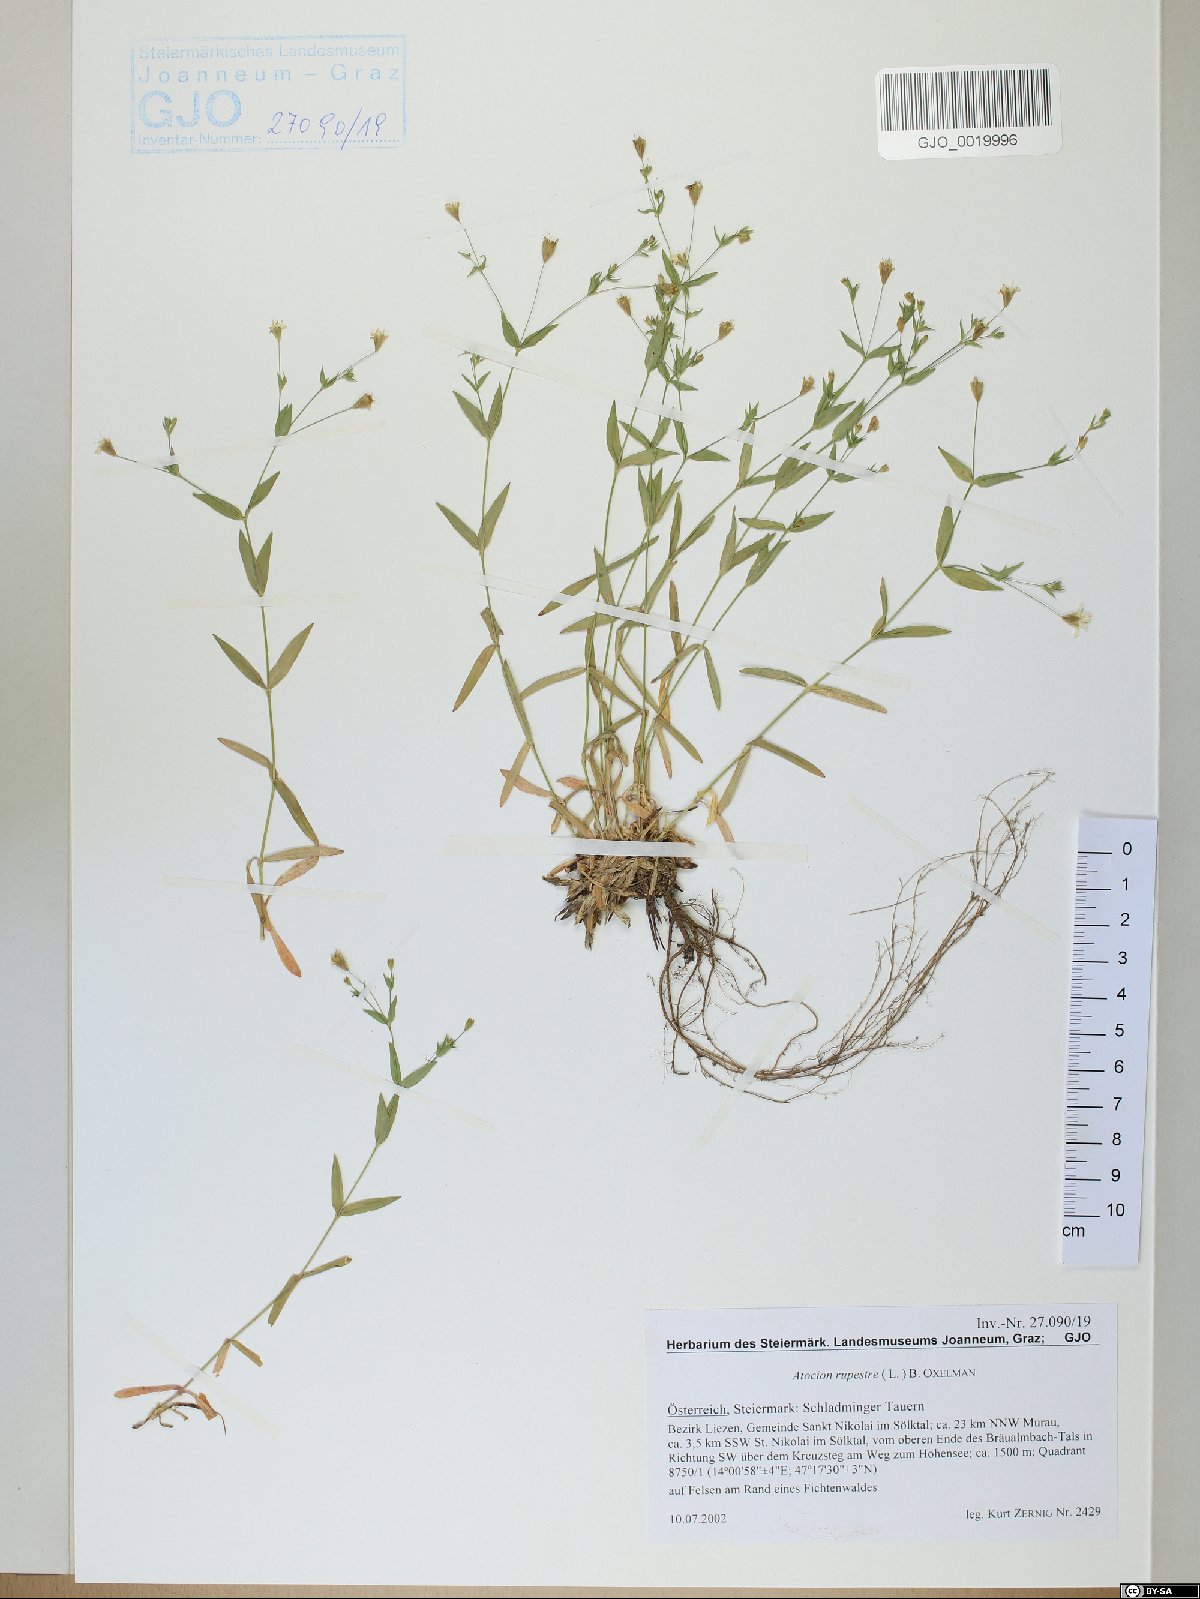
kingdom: Plantae
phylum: Tracheophyta
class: Magnoliopsida
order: Caryophyllales
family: Caryophyllaceae
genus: Atocion
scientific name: Atocion rupestre
